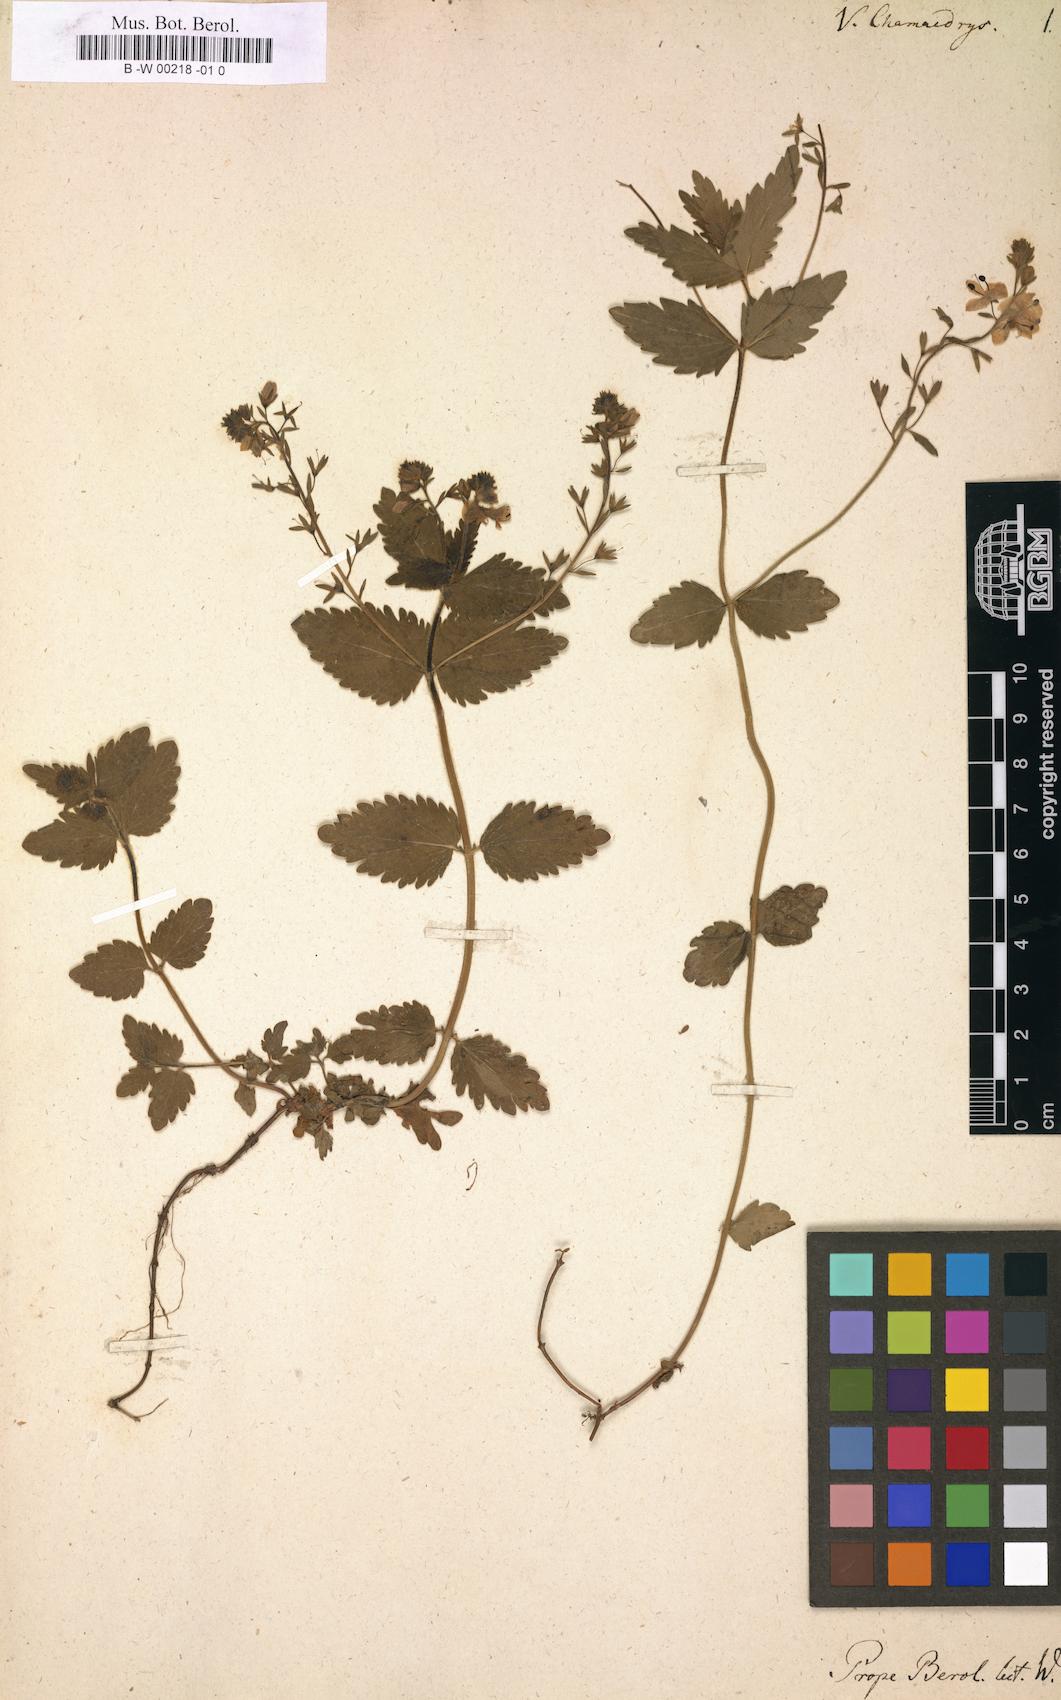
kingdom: Plantae
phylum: Tracheophyta
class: Magnoliopsida
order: Lamiales
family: Plantaginaceae
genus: Veronica
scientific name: Veronica chamaedrys
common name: Germander speedwell
